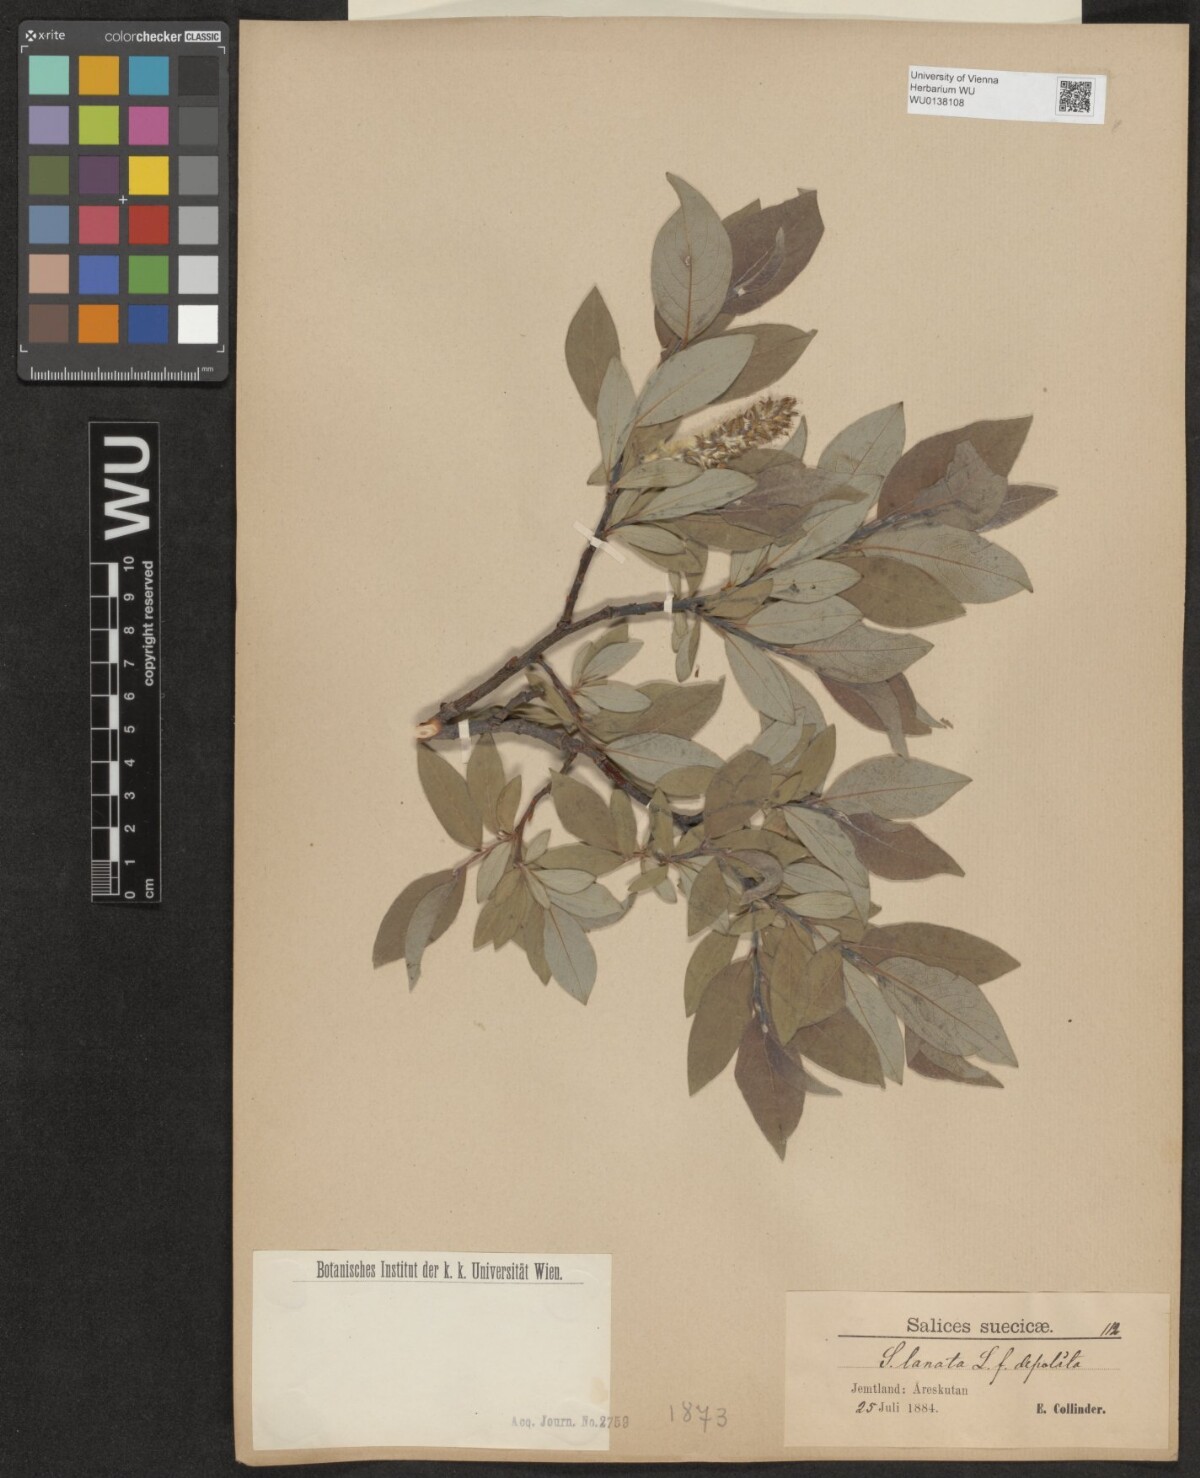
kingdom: Plantae
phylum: Tracheophyta
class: Magnoliopsida
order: Malpighiales
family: Salicaceae
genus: Salix
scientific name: Salix lanata
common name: Woolly willow
